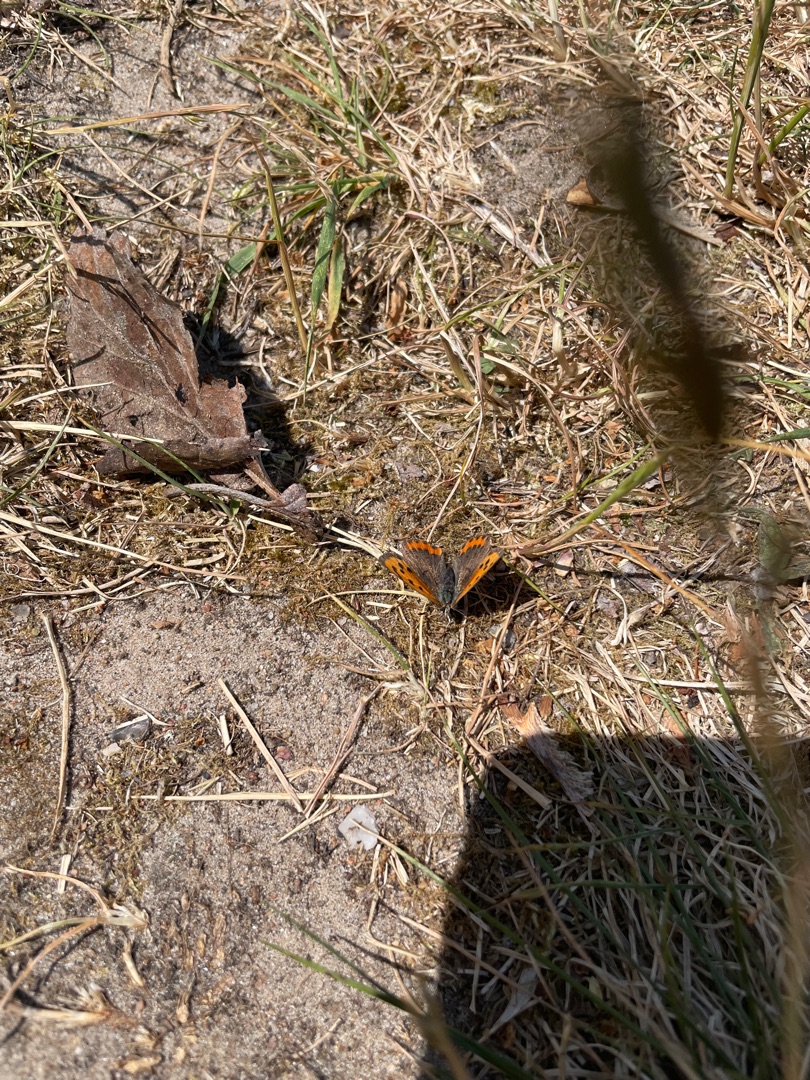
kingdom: Animalia
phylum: Arthropoda
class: Insecta
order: Lepidoptera
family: Lycaenidae
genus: Lycaena
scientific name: Lycaena phlaeas
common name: Lille ildfugl
